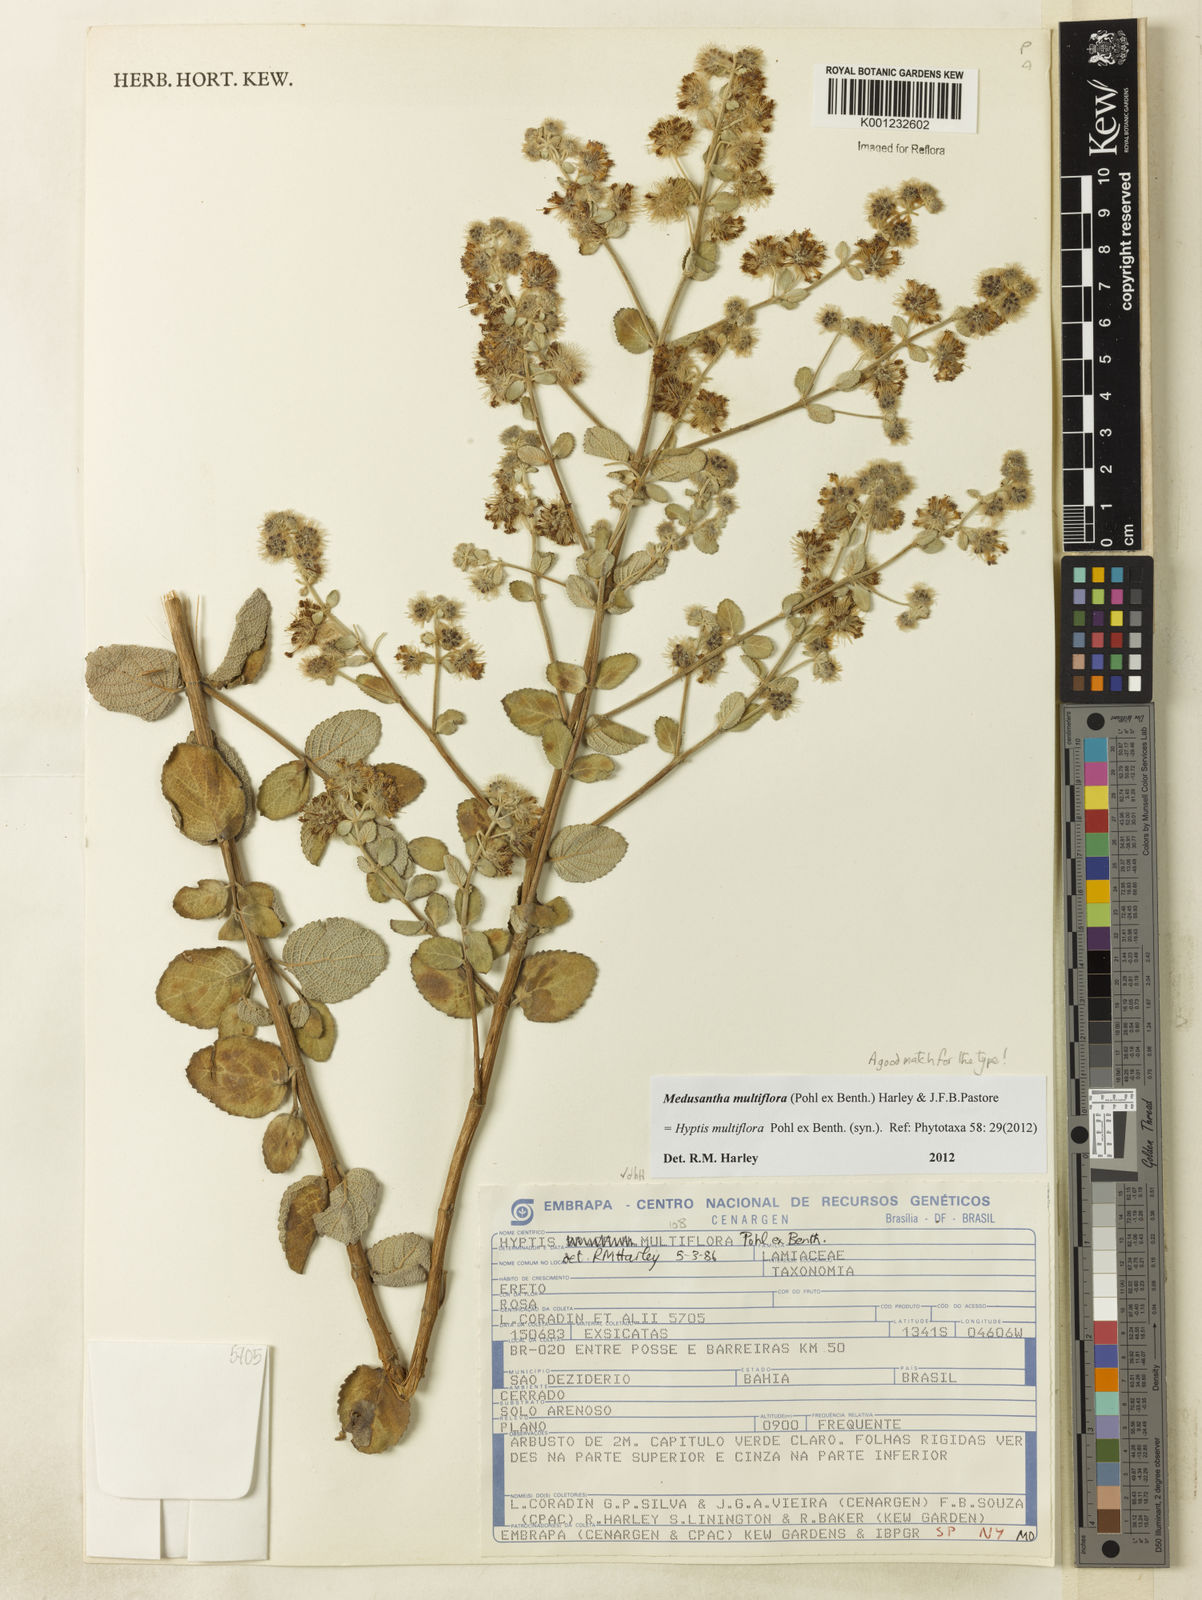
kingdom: Plantae
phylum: Tracheophyta
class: Magnoliopsida
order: Lamiales
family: Lamiaceae
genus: Medusantha
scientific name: Medusantha multiflora
